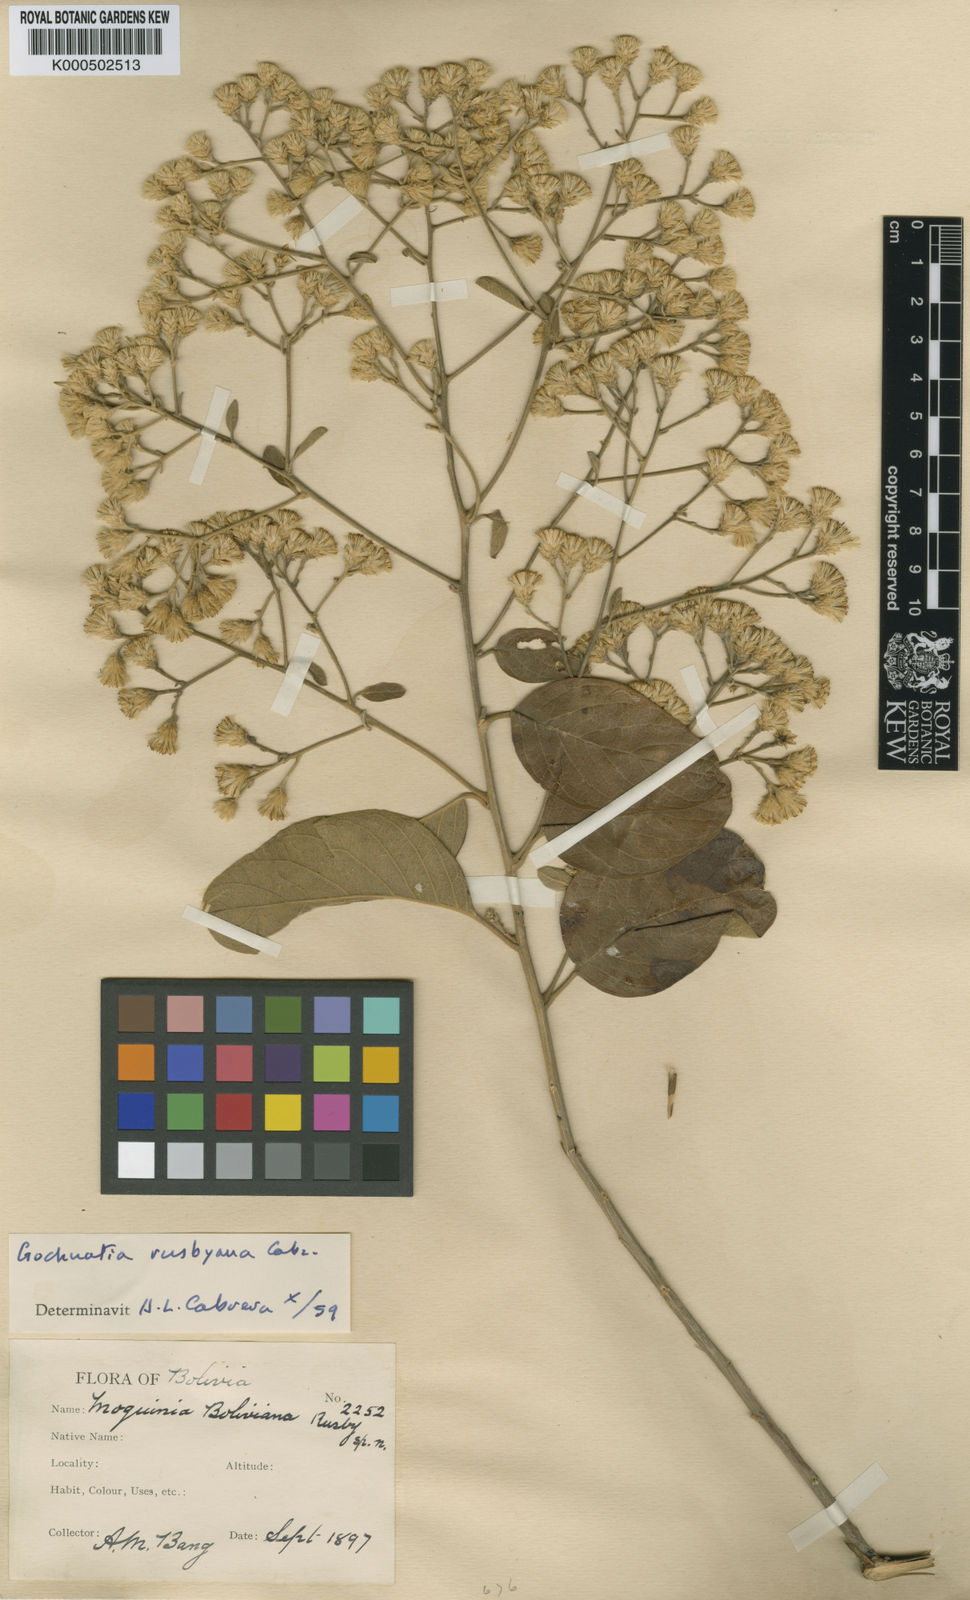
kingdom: Plantae
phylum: Tracheophyta
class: Magnoliopsida
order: Asterales
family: Asteraceae
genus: Moquiniastrum
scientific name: Moquiniastrum bolivianum
